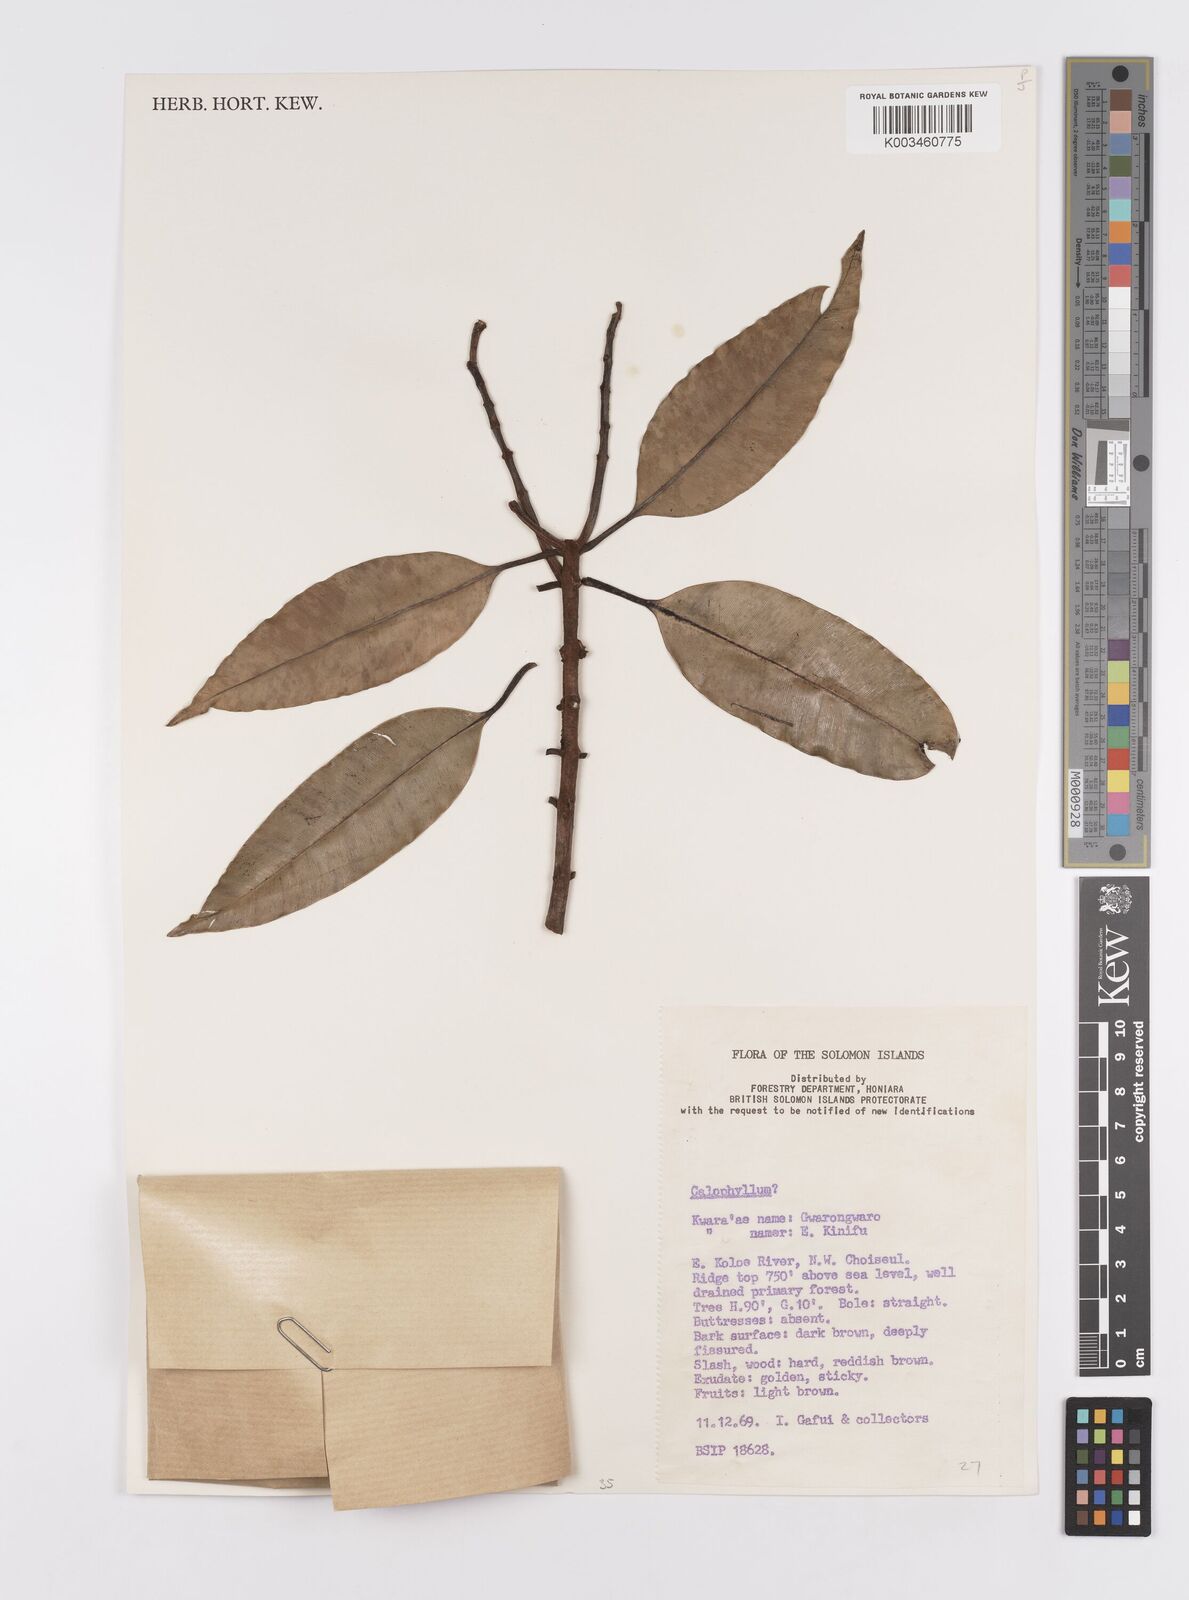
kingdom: Plantae
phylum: Tracheophyta
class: Magnoliopsida
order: Malpighiales
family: Calophyllaceae
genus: Calophyllum
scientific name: Calophyllum
